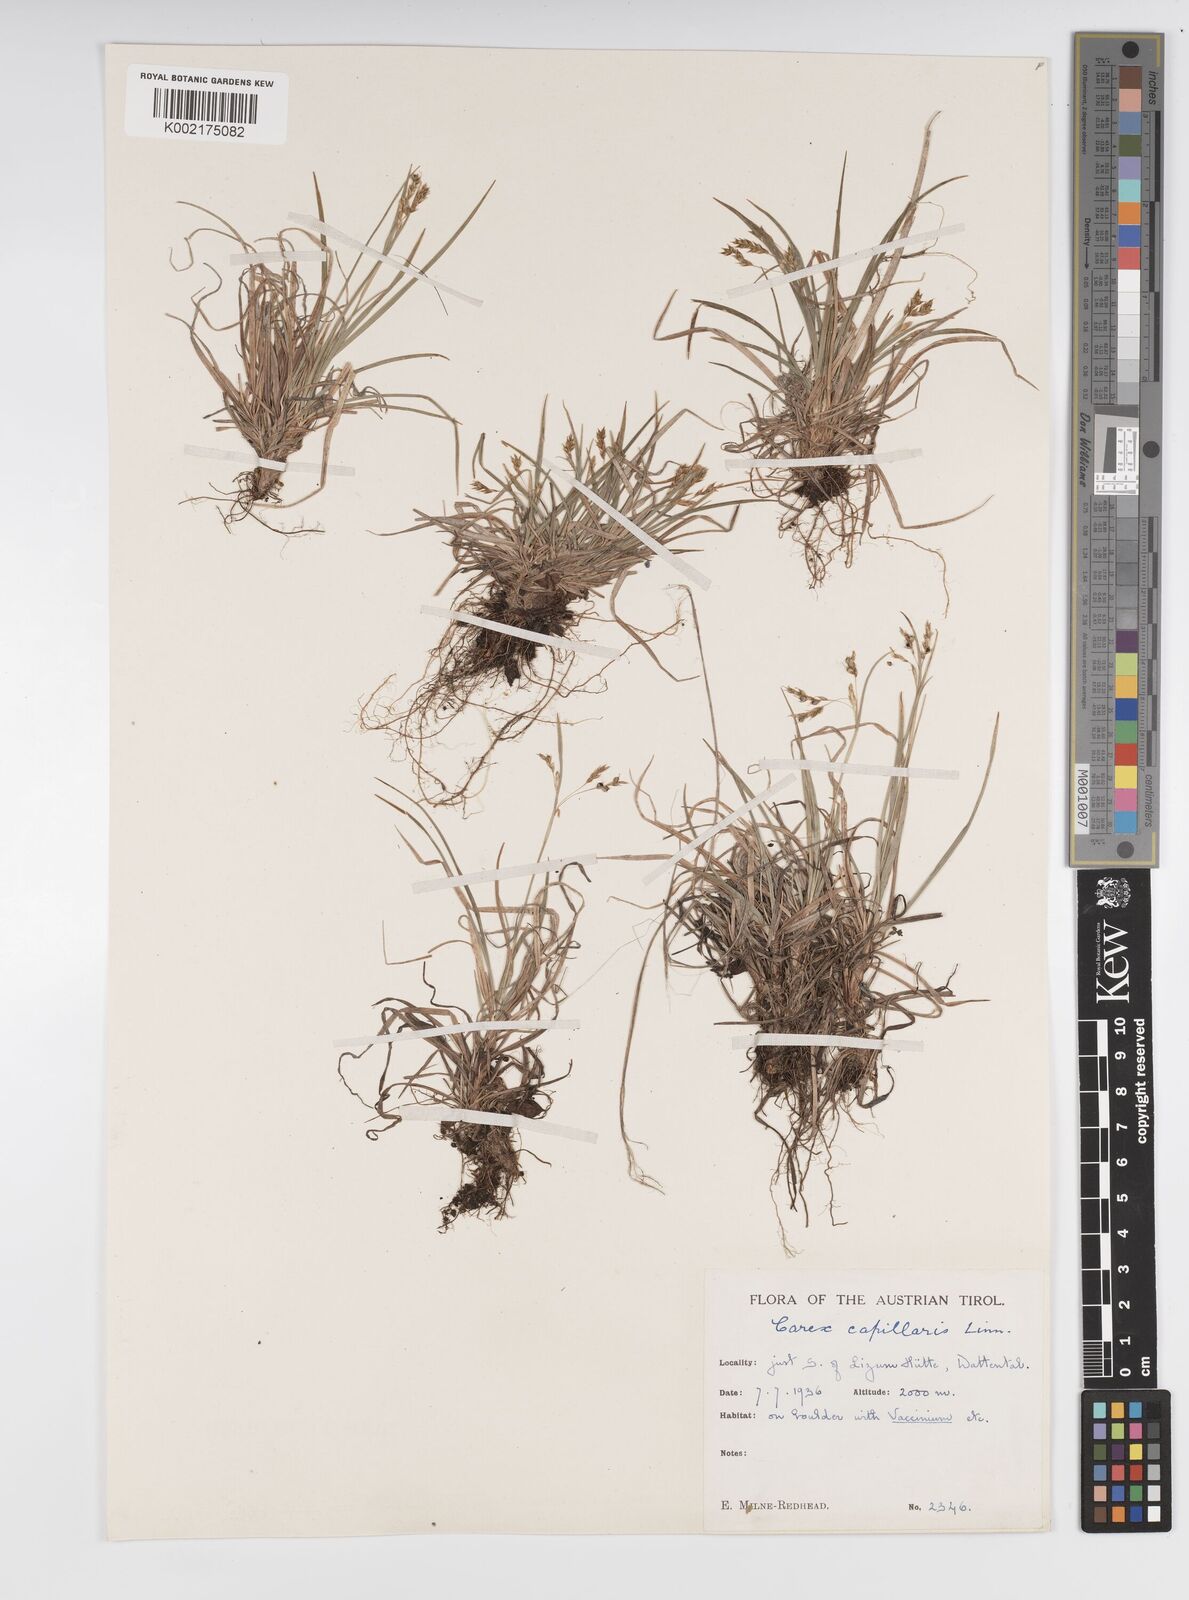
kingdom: Plantae
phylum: Tracheophyta
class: Liliopsida
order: Poales
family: Cyperaceae
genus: Carex
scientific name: Carex capillaris
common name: Hair sedge
